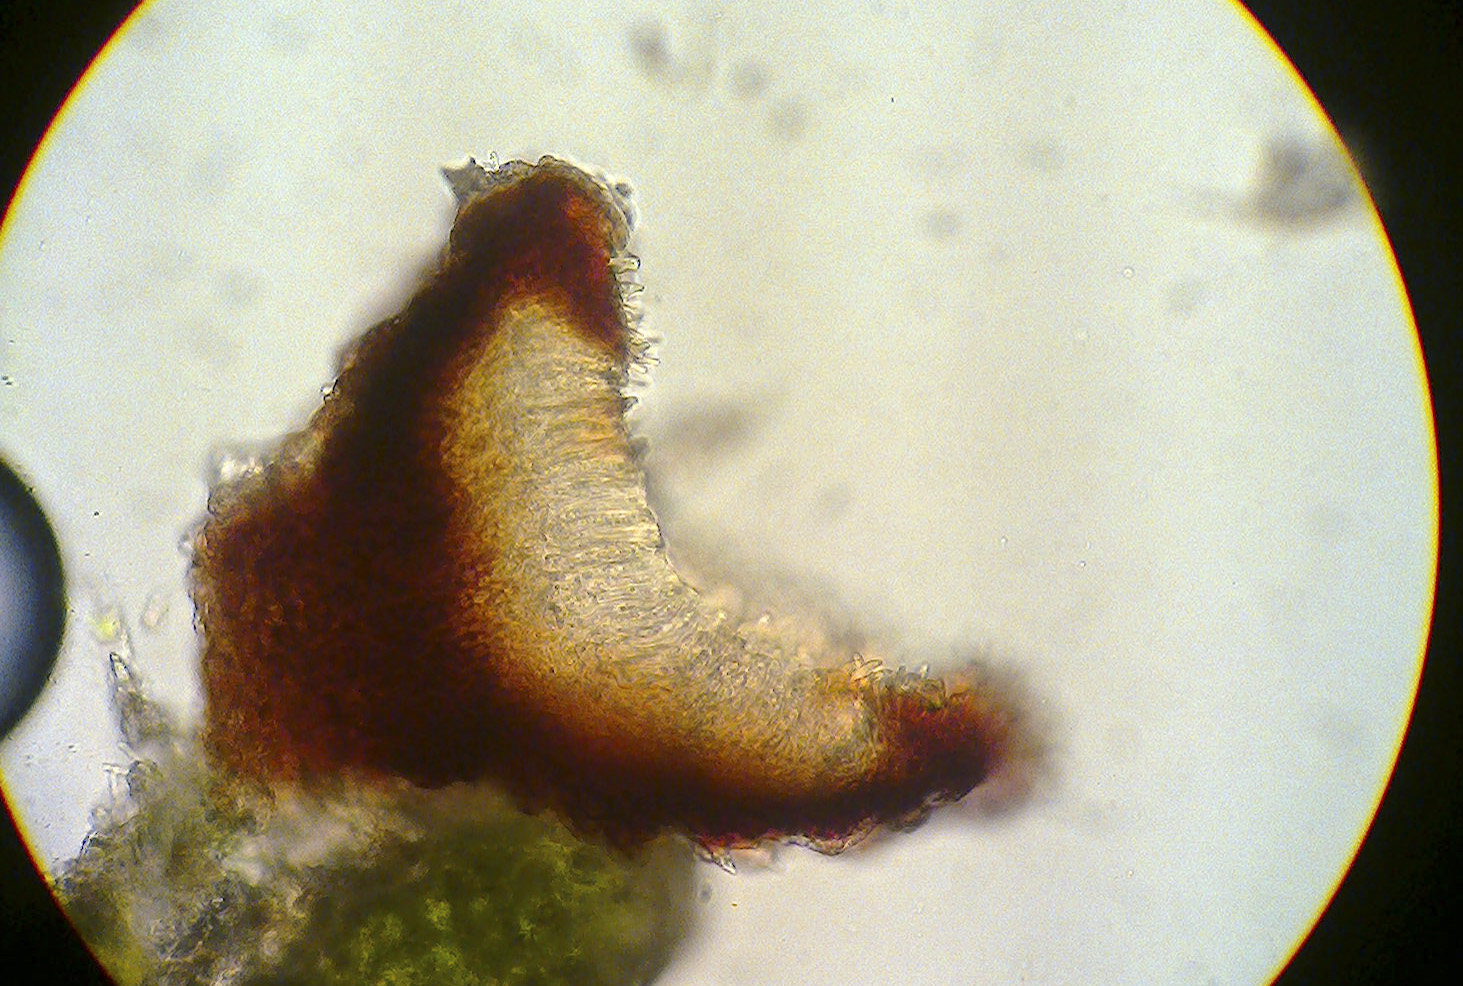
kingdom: Fungi
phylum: Ascomycota
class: Leotiomycetes
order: Helotiales
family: Cordieritidaceae
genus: Unguiculariopsis
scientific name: Unguiculariopsis lesdainii
